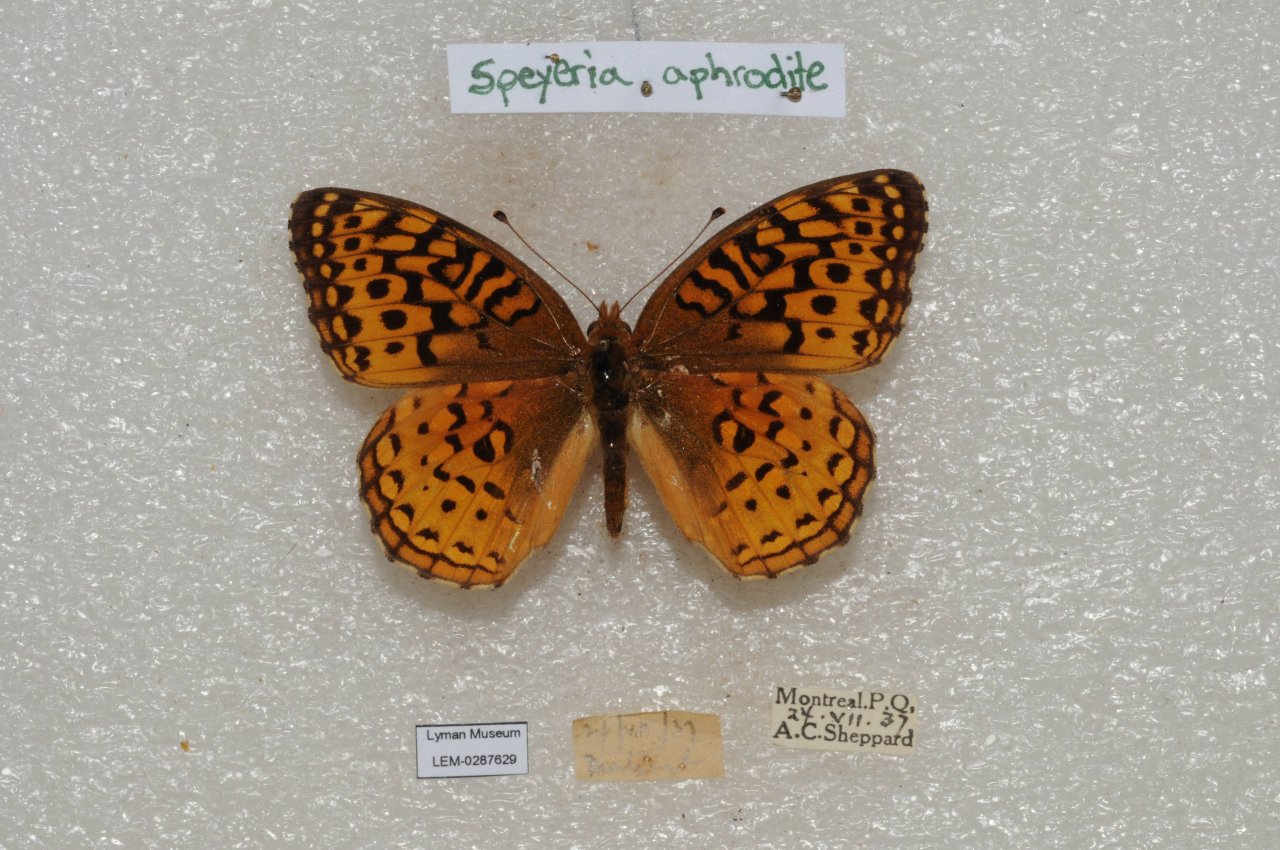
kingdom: Animalia
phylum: Arthropoda
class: Insecta
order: Lepidoptera
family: Nymphalidae
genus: Speyeria
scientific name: Speyeria aphrodite
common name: Aphrodite Fritillary
